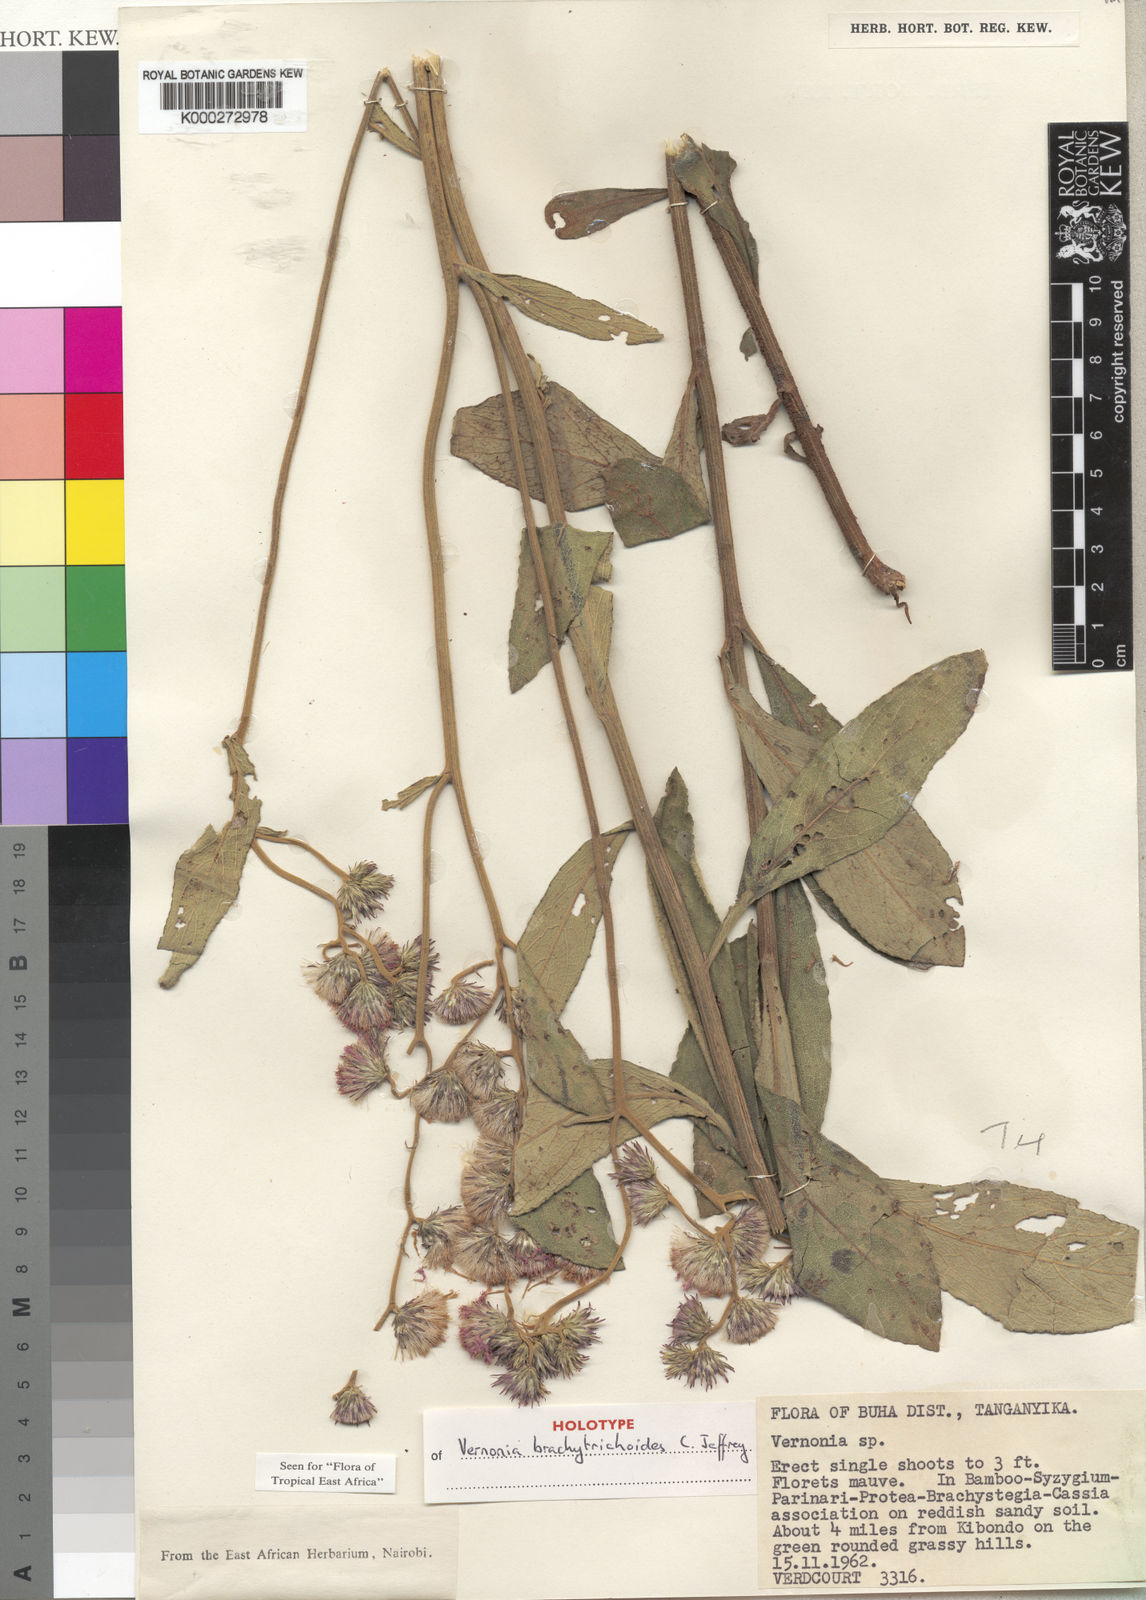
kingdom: Plantae
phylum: Tracheophyta
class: Magnoliopsida
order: Asterales
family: Asteraceae
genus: Vernonia
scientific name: Vernonia brachytrichoides
